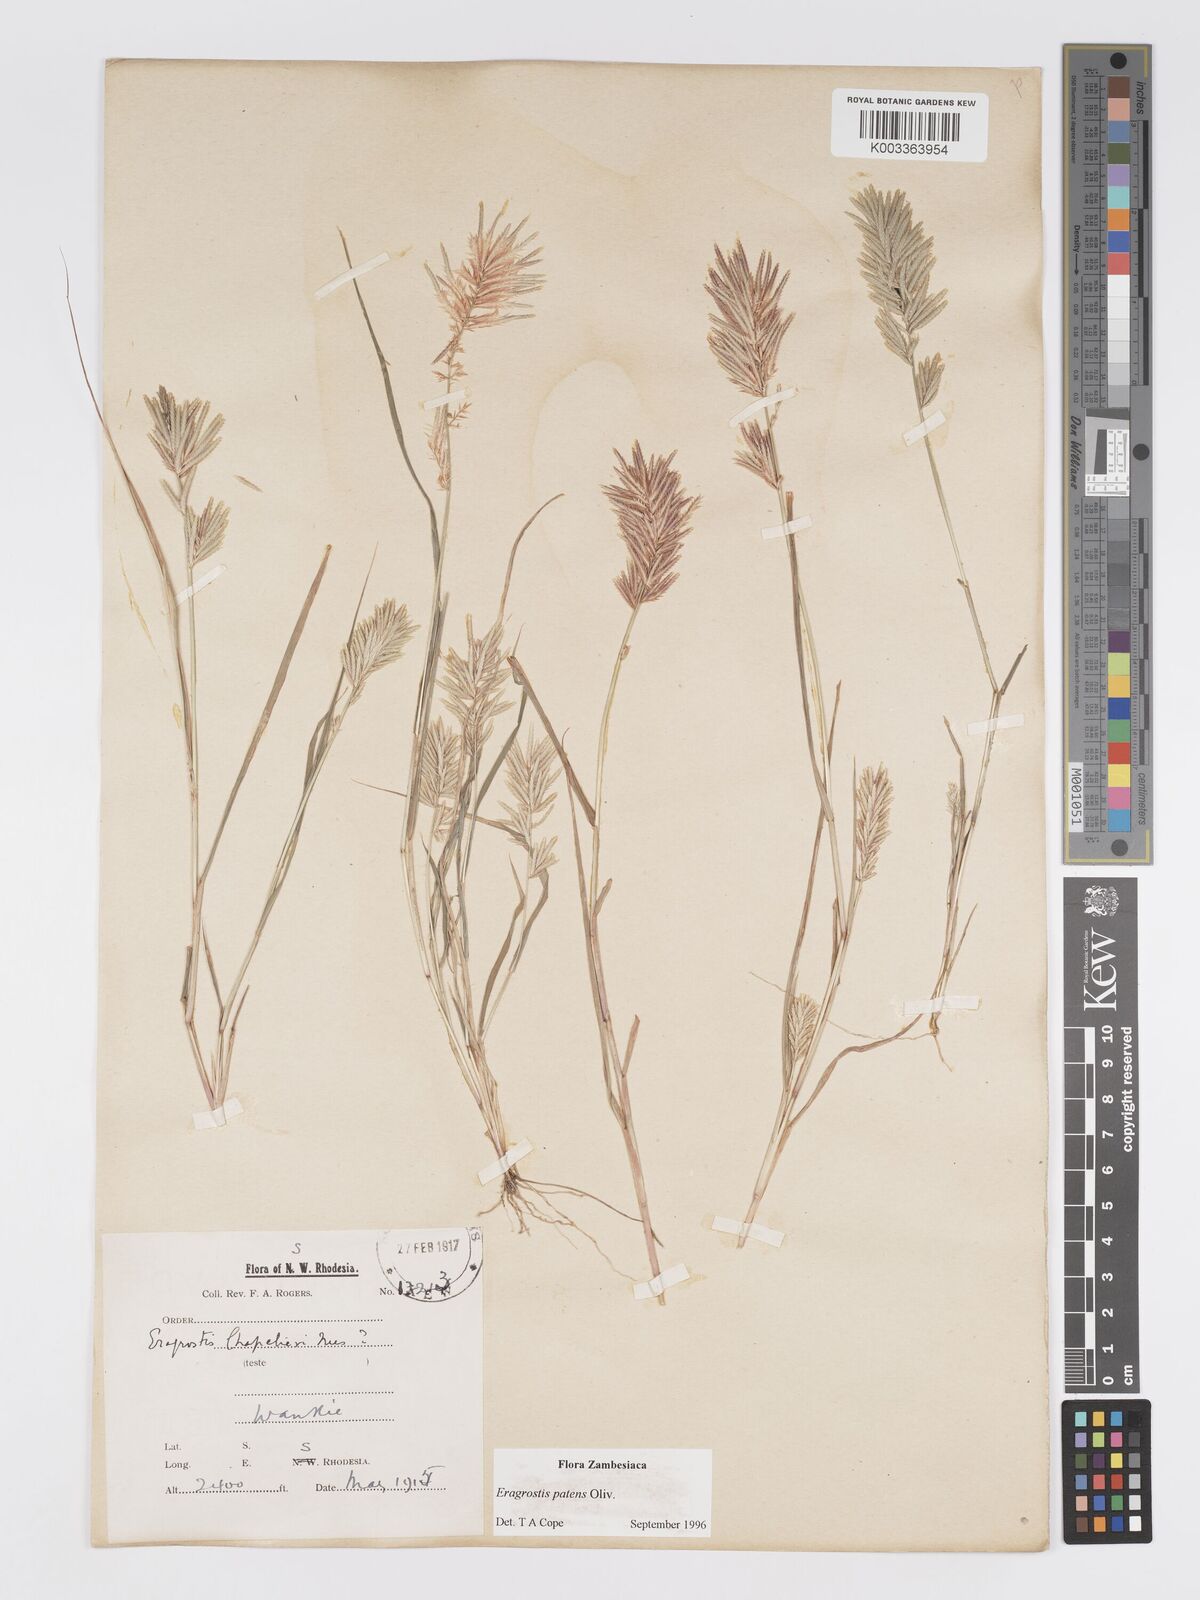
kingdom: Plantae
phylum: Tracheophyta
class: Liliopsida
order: Poales
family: Poaceae
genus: Eragrostis
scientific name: Eragrostis patens
